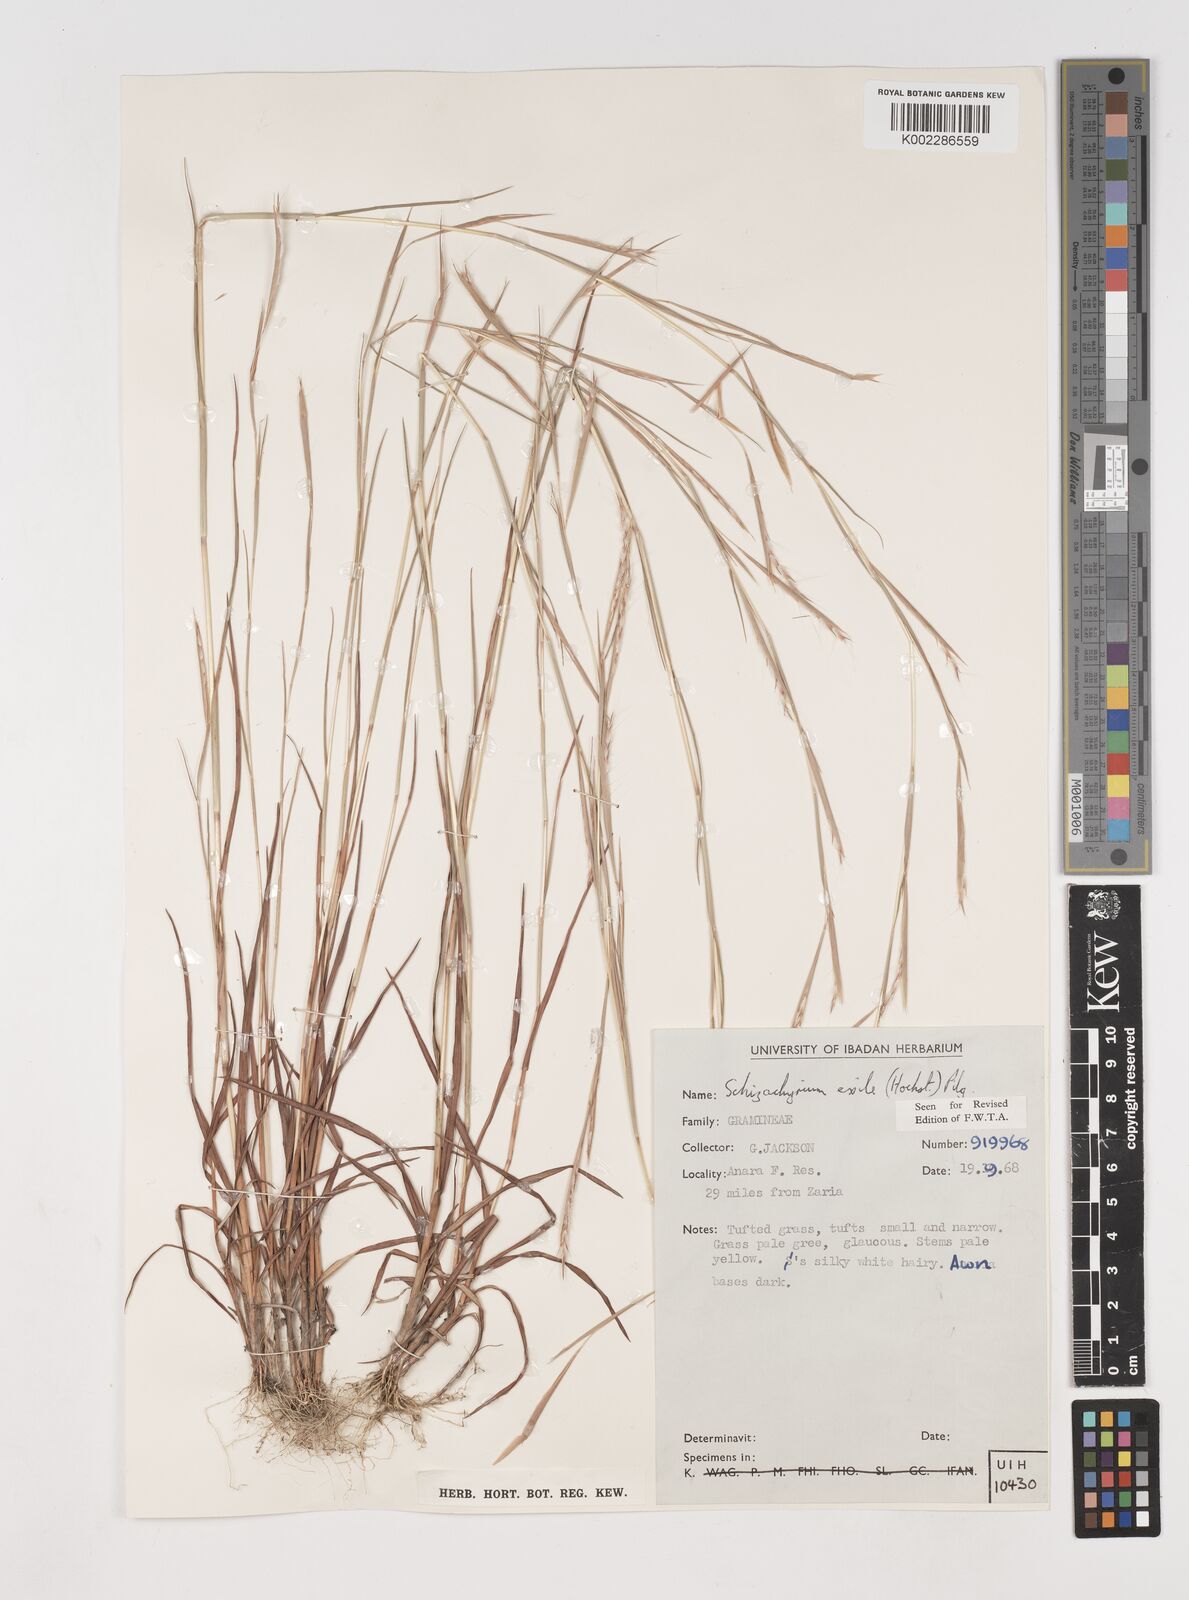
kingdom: Plantae
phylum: Tracheophyta
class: Liliopsida
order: Poales
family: Poaceae
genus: Schizachyrium
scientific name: Schizachyrium exile
